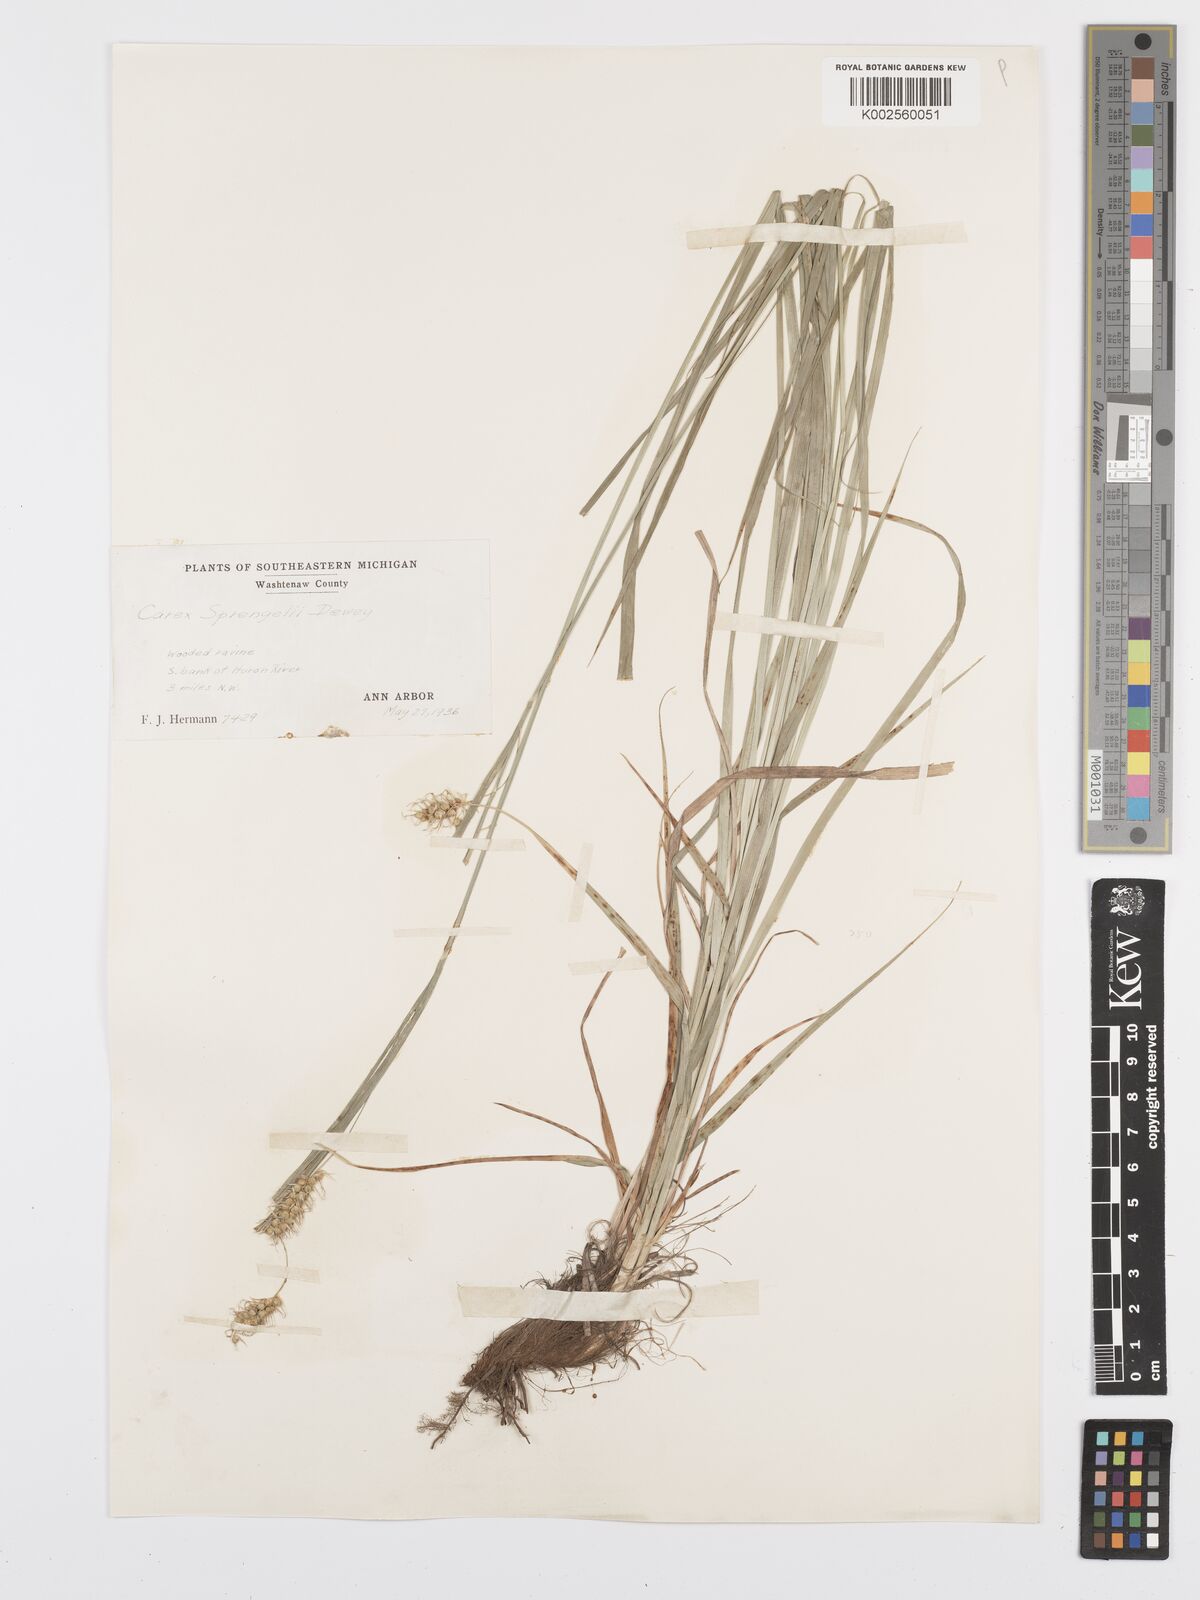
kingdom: Plantae
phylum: Tracheophyta
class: Liliopsida
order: Poales
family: Cyperaceae
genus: Carex
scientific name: Carex sprengelii
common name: Long-beaked sedge
